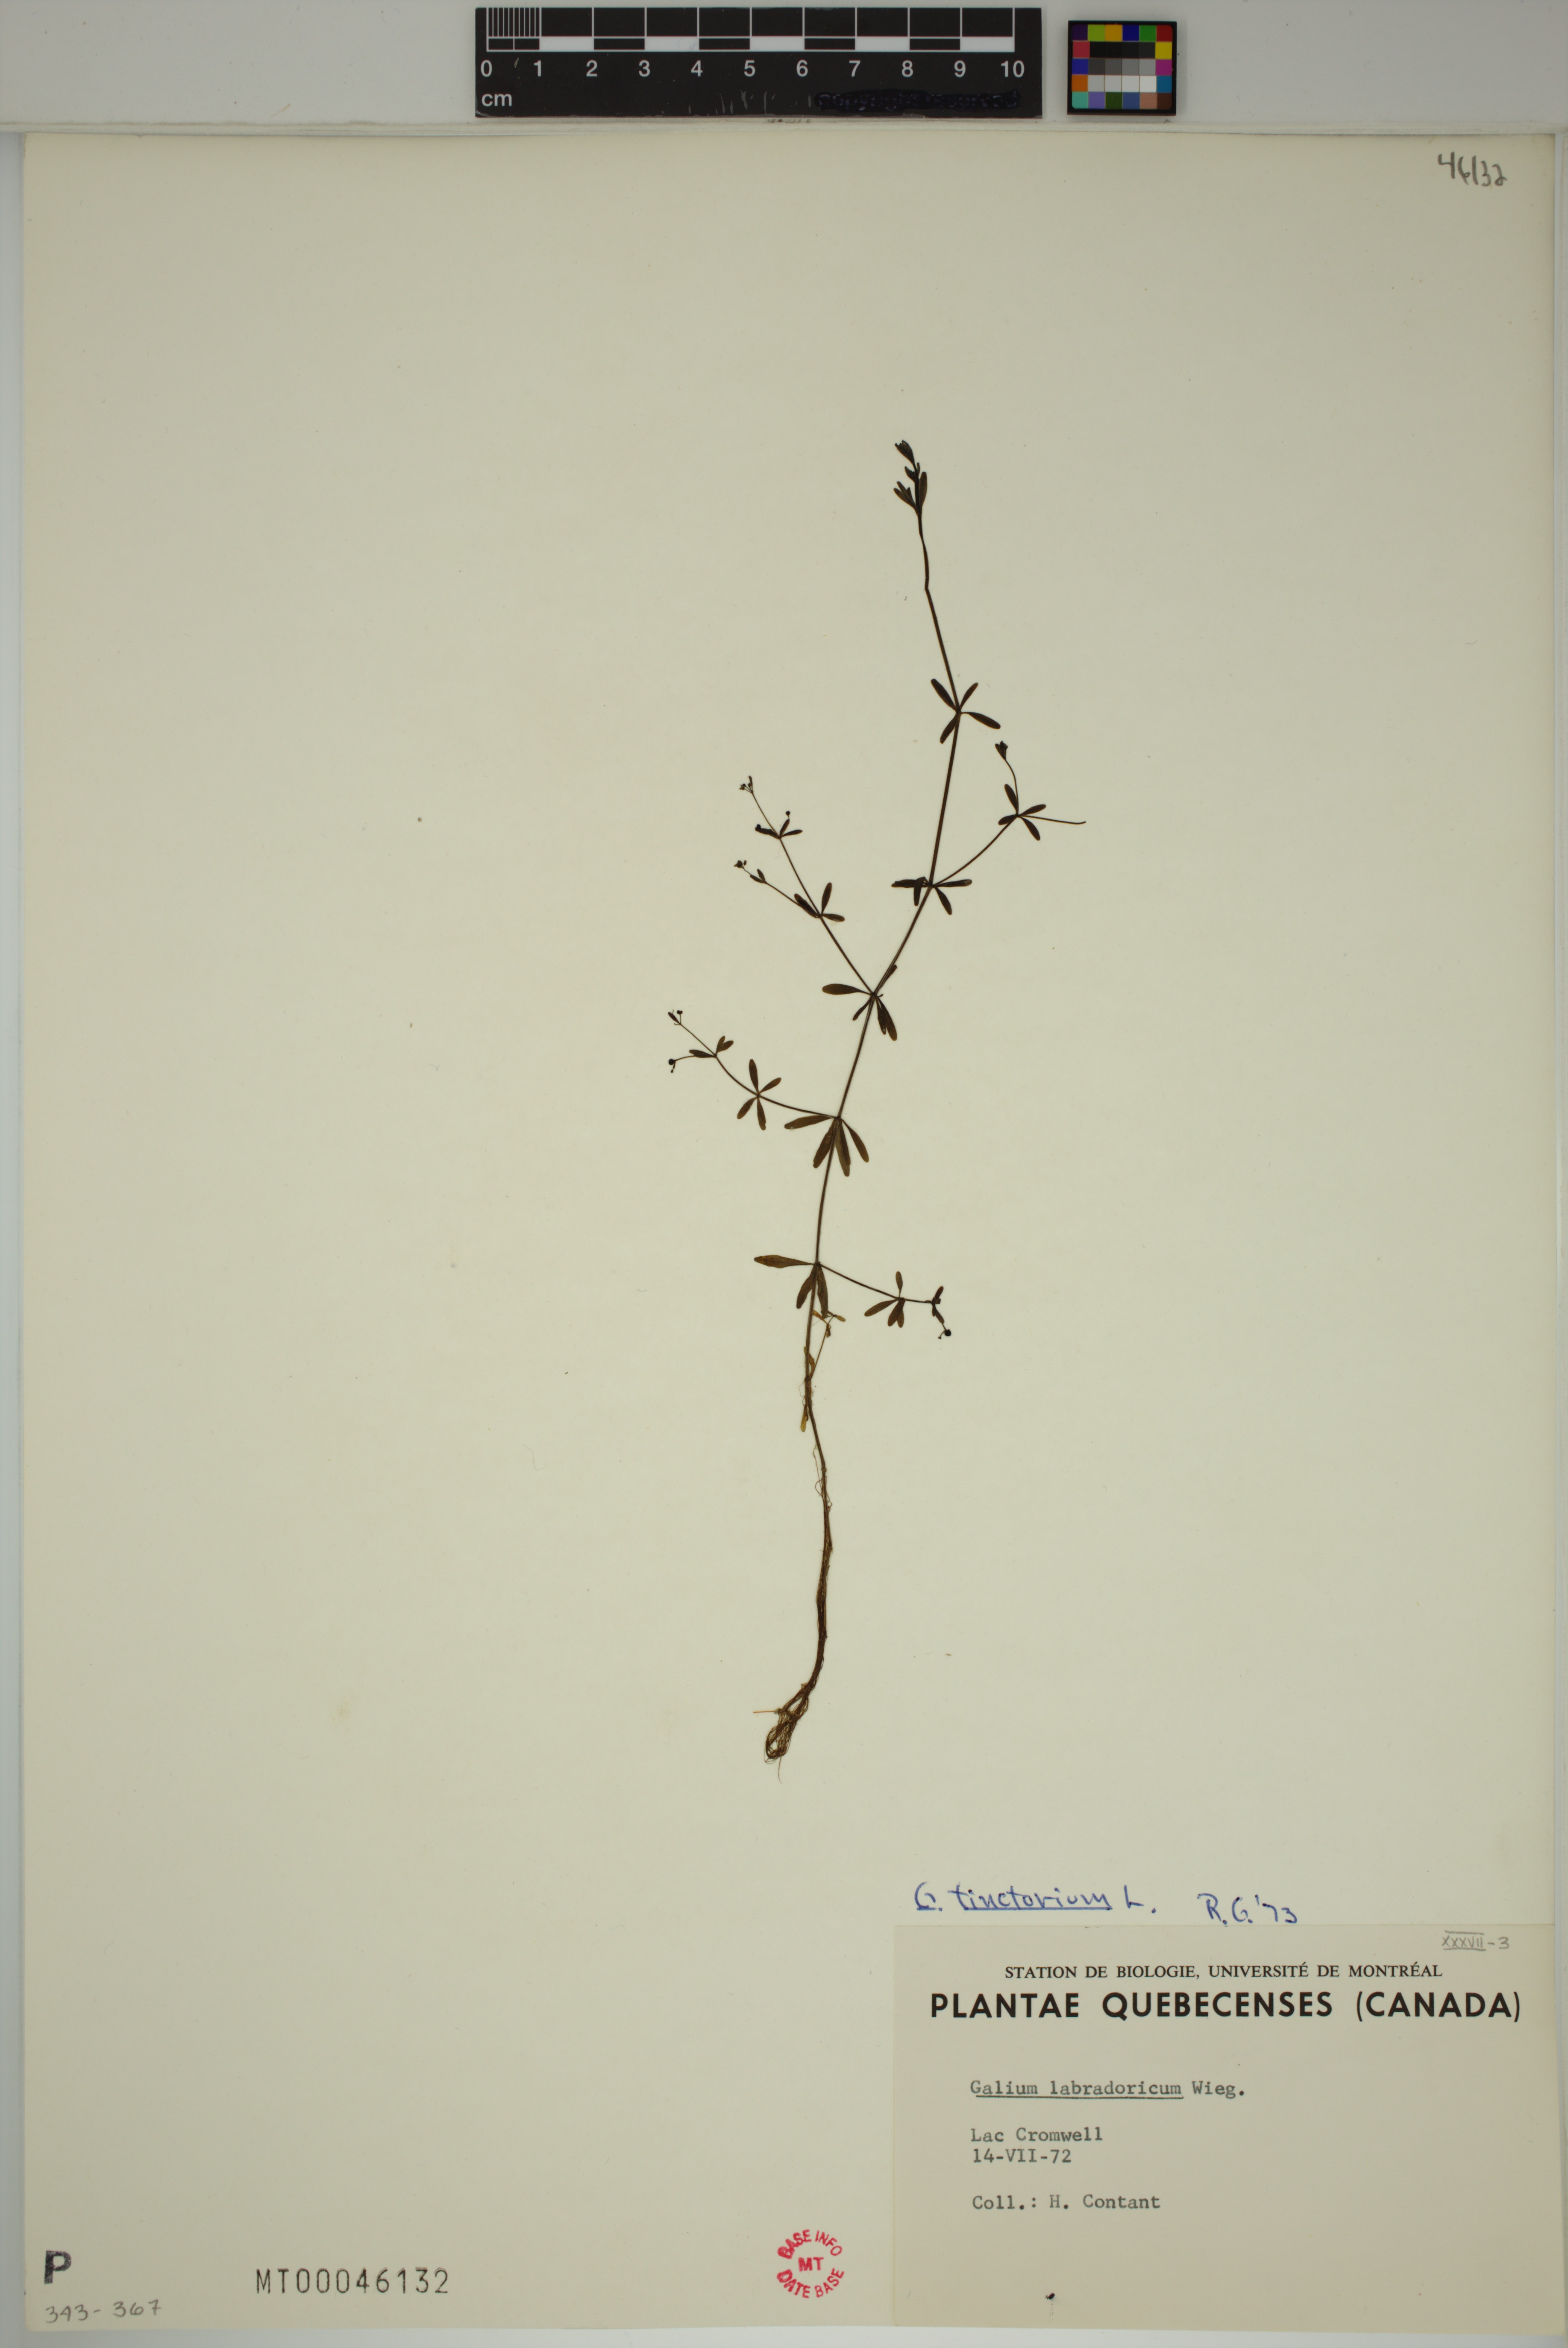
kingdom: Plantae
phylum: Tracheophyta
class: Magnoliopsida
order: Gentianales
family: Rubiaceae
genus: Galium
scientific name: Galium tinctorium
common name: Bedstraw
